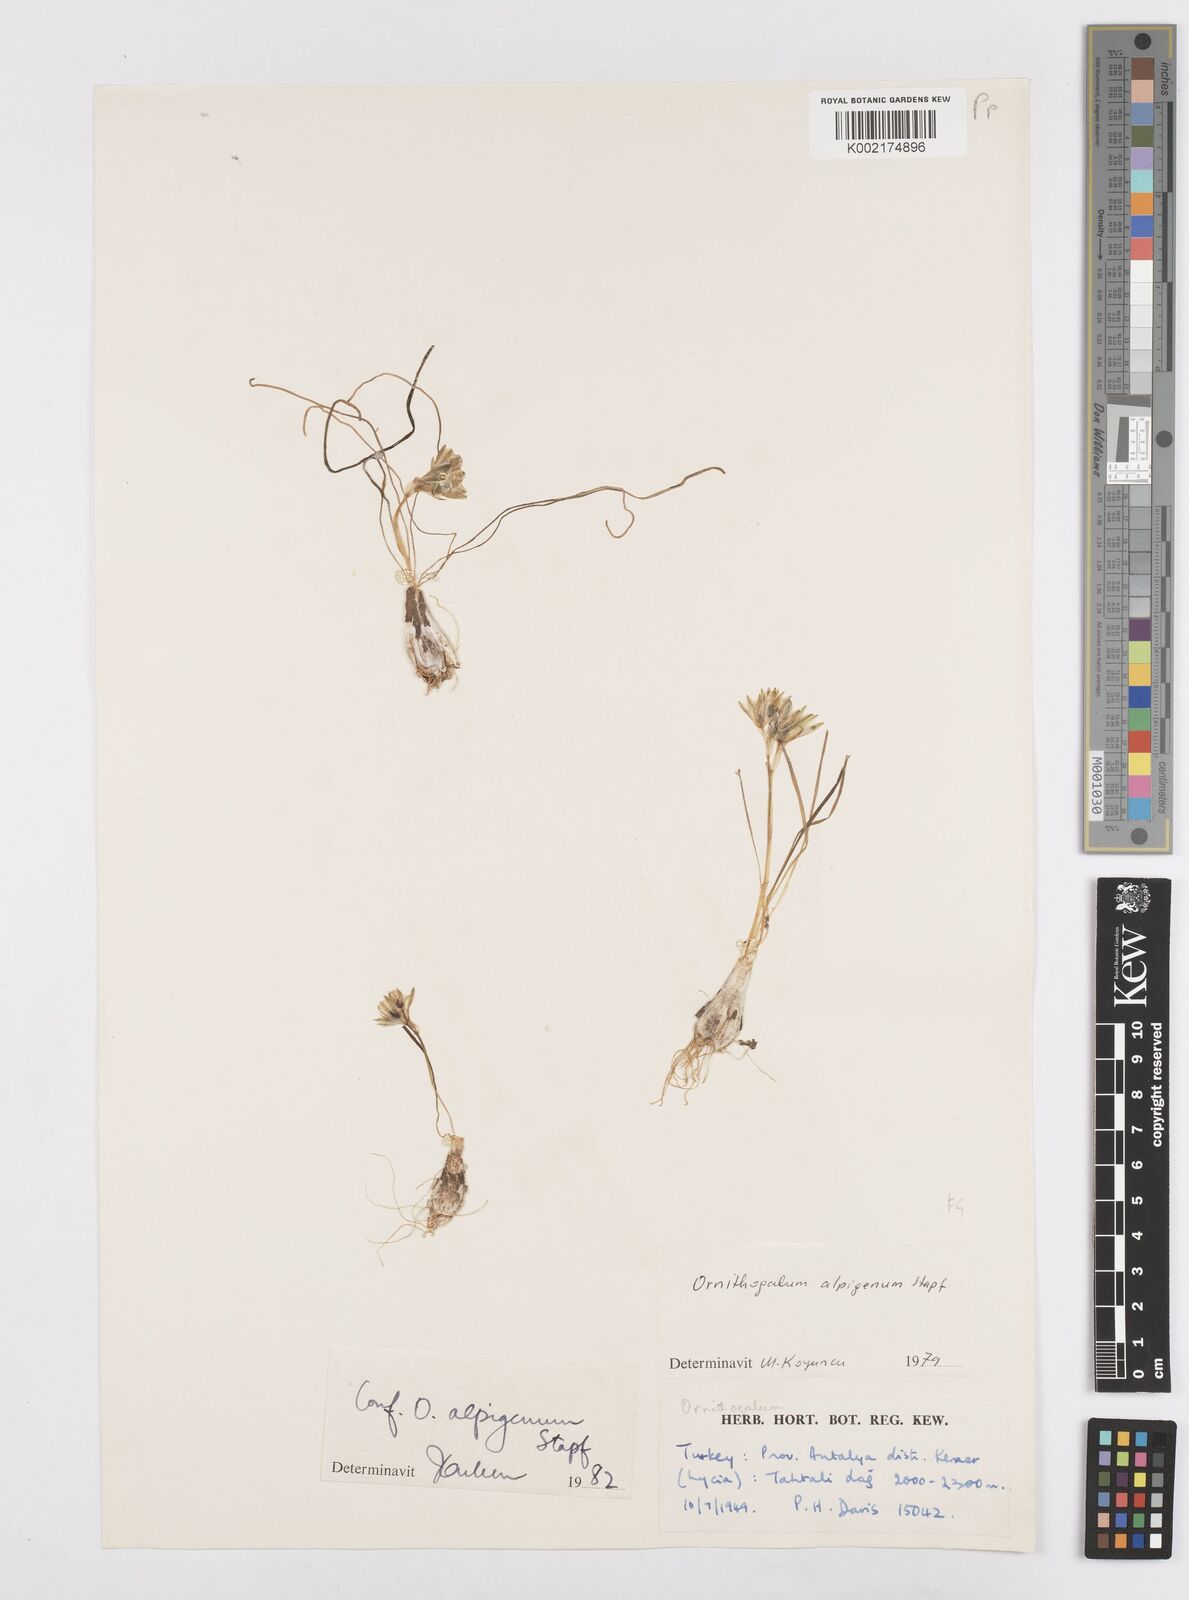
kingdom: Plantae
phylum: Tracheophyta
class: Liliopsida
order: Asparagales
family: Asparagaceae
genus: Ornithogalum
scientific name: Ornithogalum alpigenum
